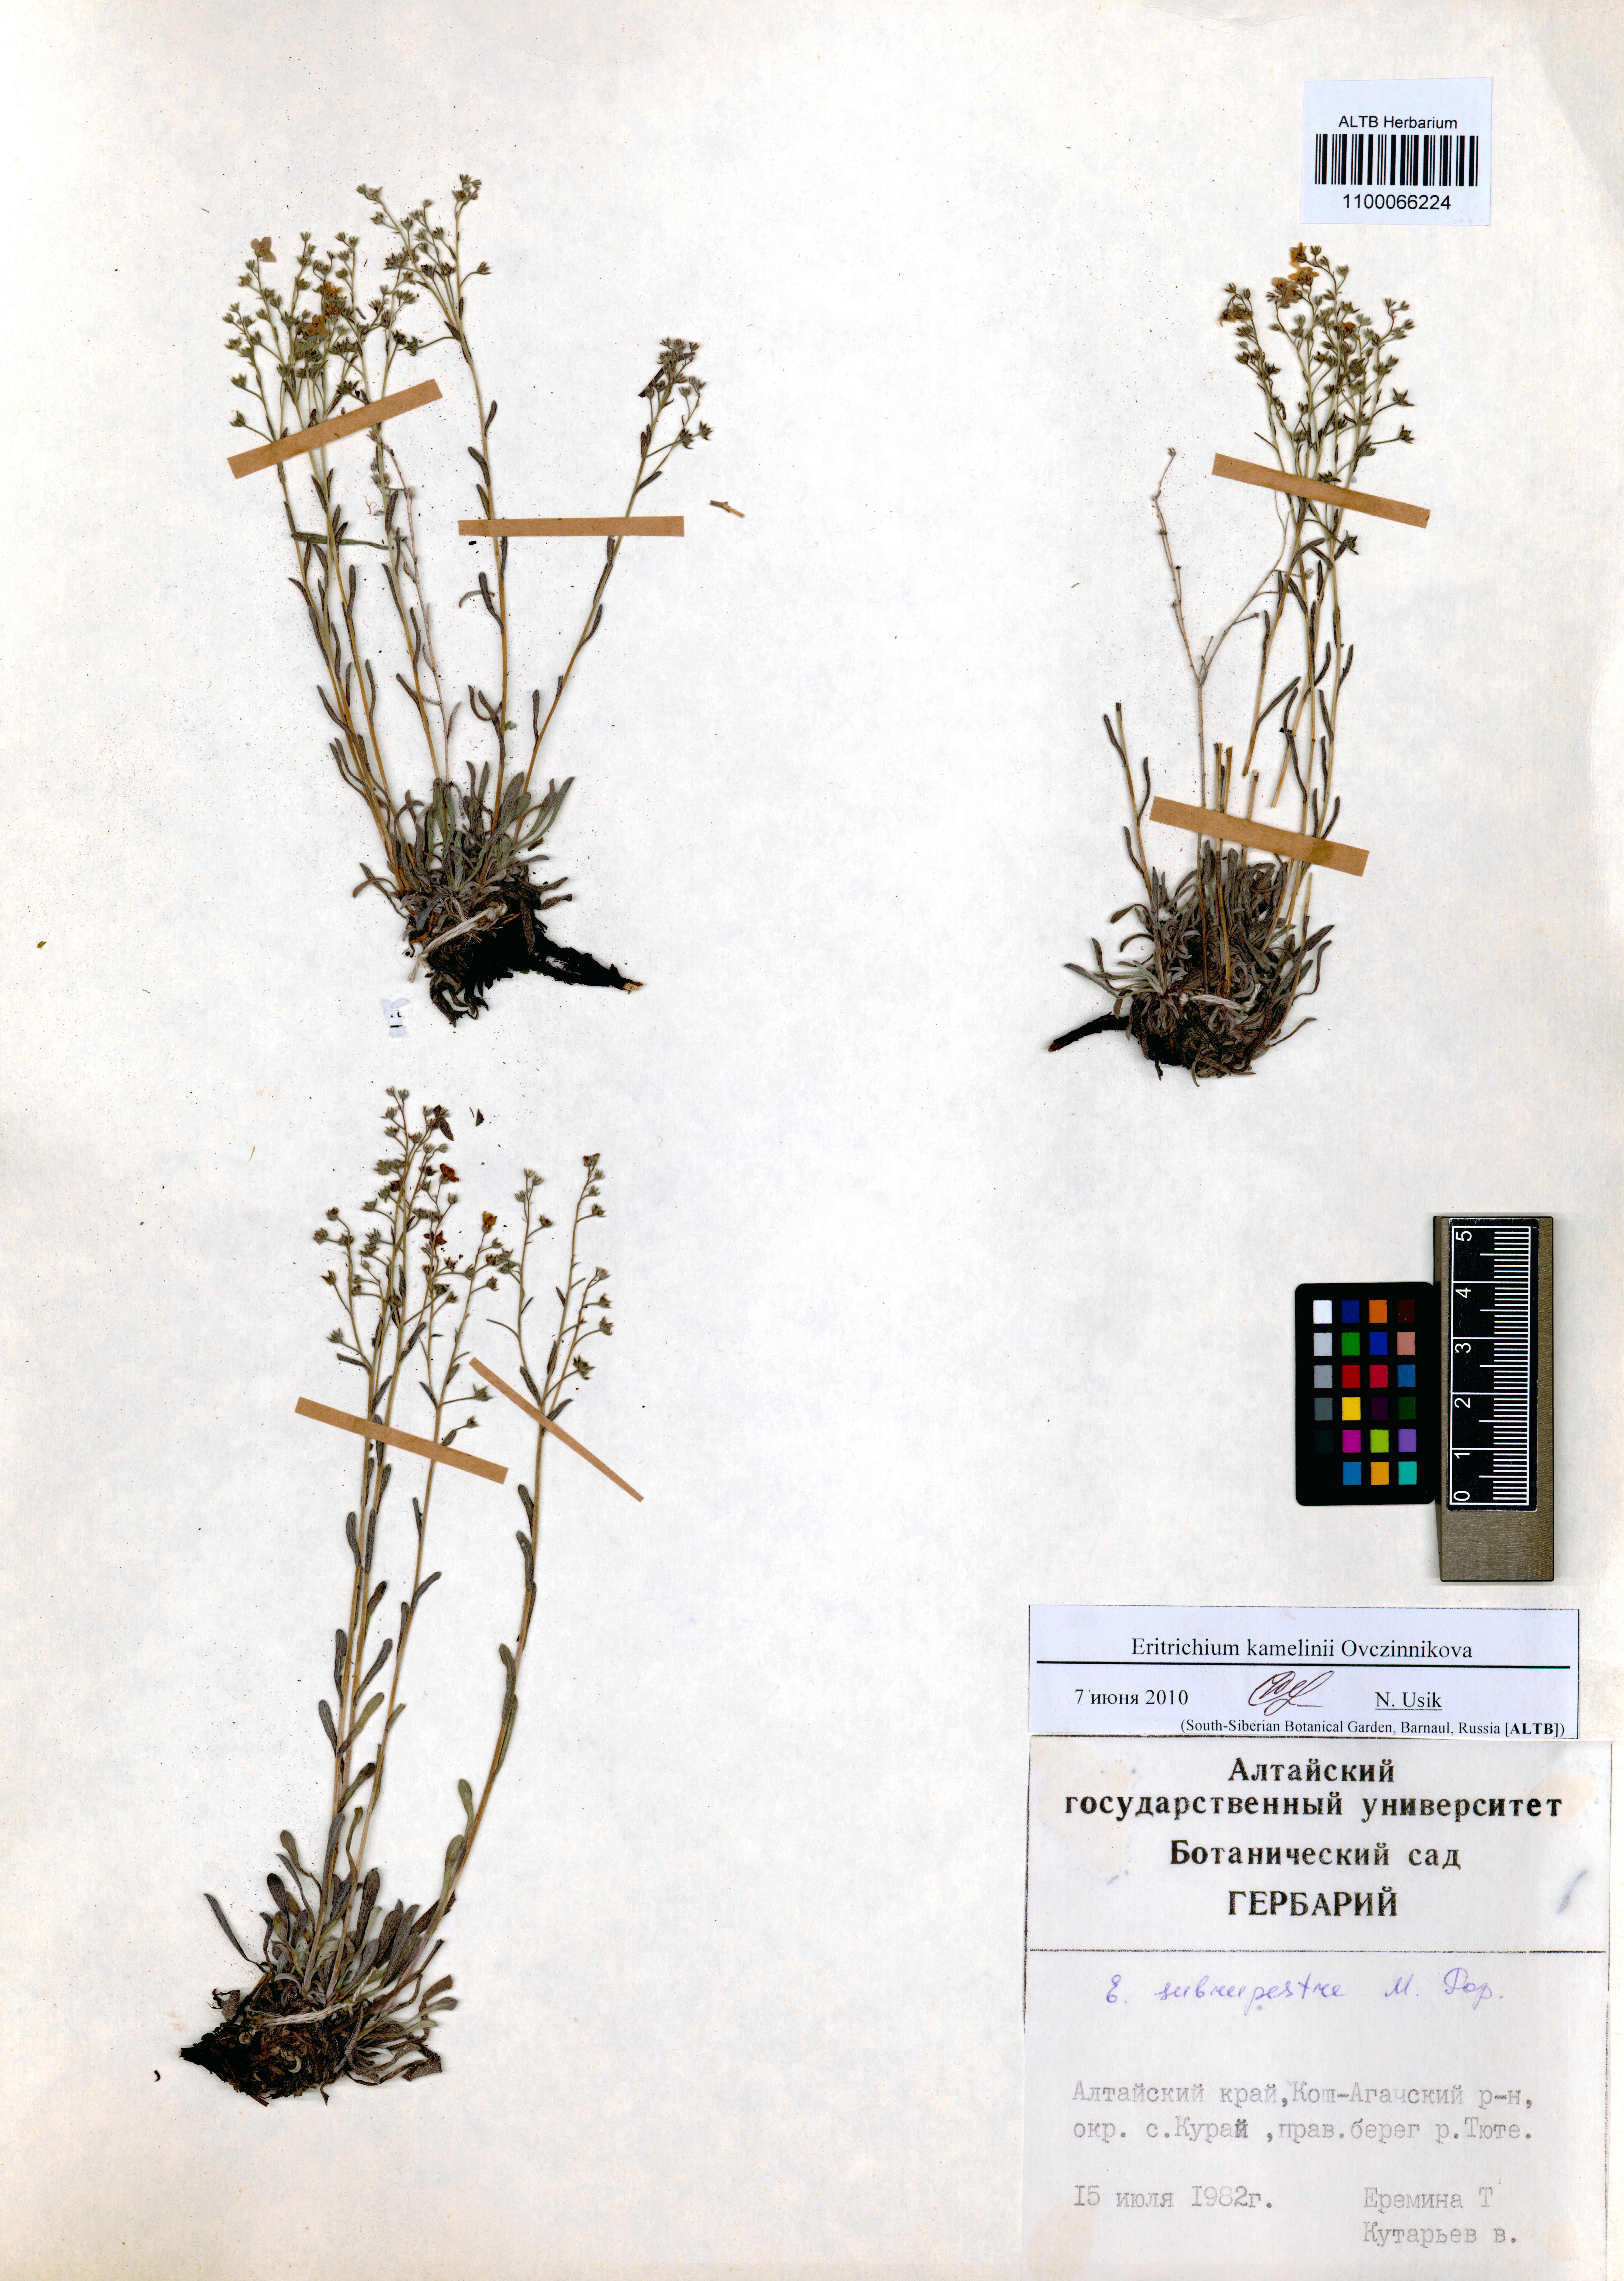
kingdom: Plantae
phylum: Tracheophyta
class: Magnoliopsida
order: Boraginales
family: Boraginaceae
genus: Eritrichium
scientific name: Eritrichium kamelinii
